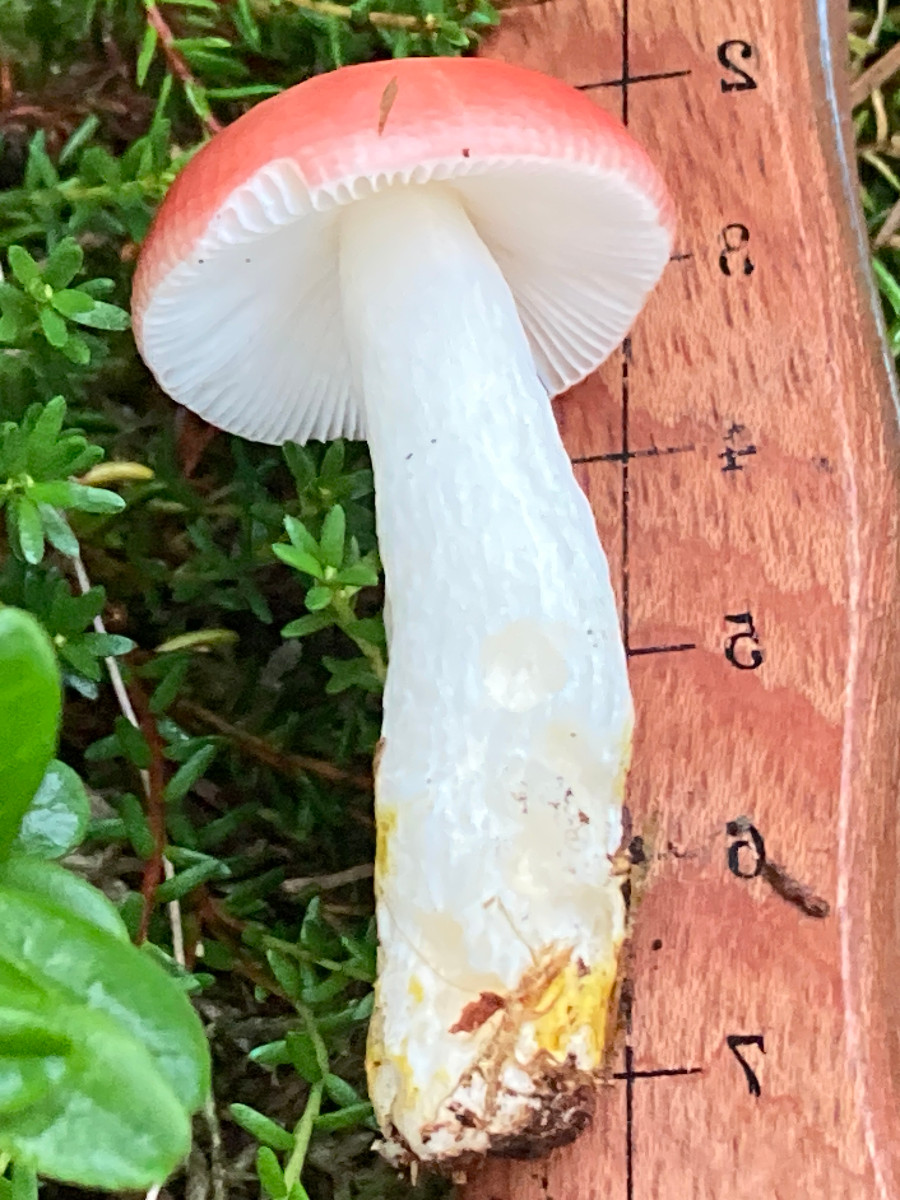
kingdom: Fungi
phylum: Basidiomycota
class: Agaricomycetes
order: Russulales
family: Russulaceae
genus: Russula
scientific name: Russula emetica
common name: stor gift-skørhat
